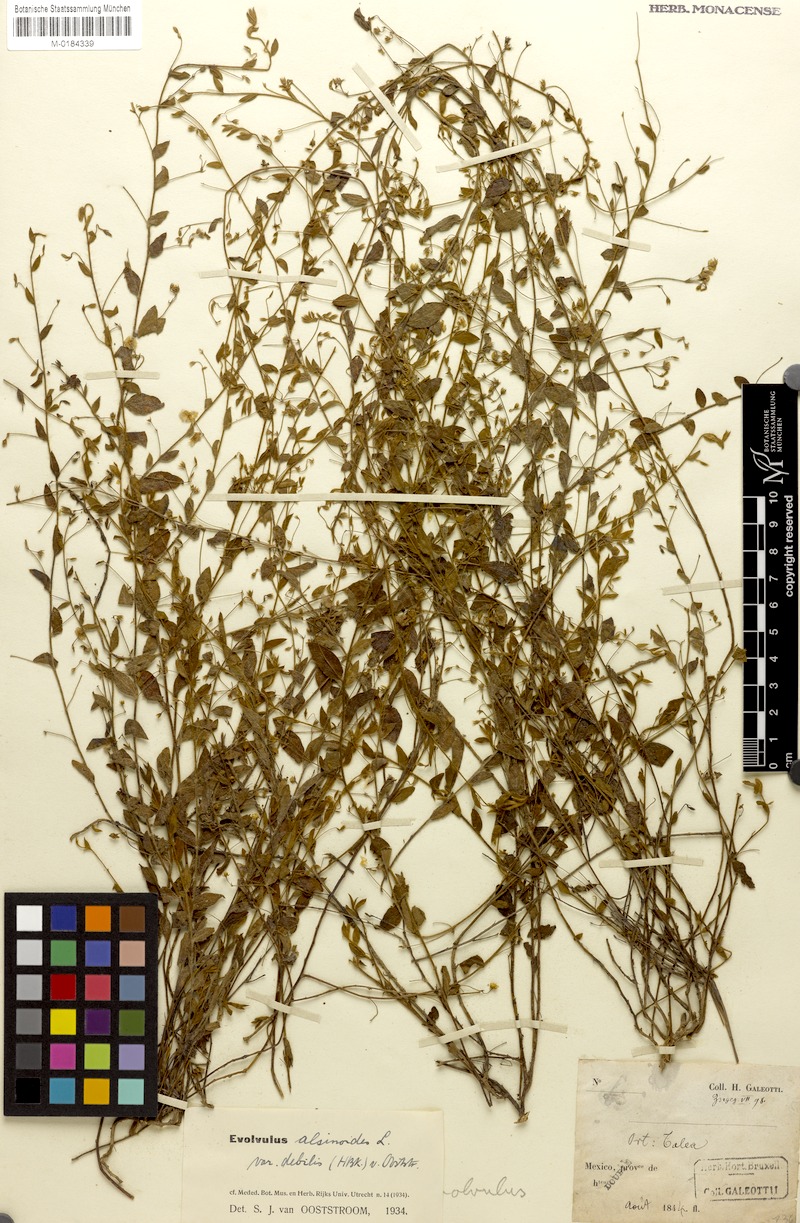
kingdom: Plantae
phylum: Tracheophyta
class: Magnoliopsida
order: Solanales
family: Convolvulaceae
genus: Evolvulus
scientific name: Evolvulus alsinoides
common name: Slender dwarf morning-glory
